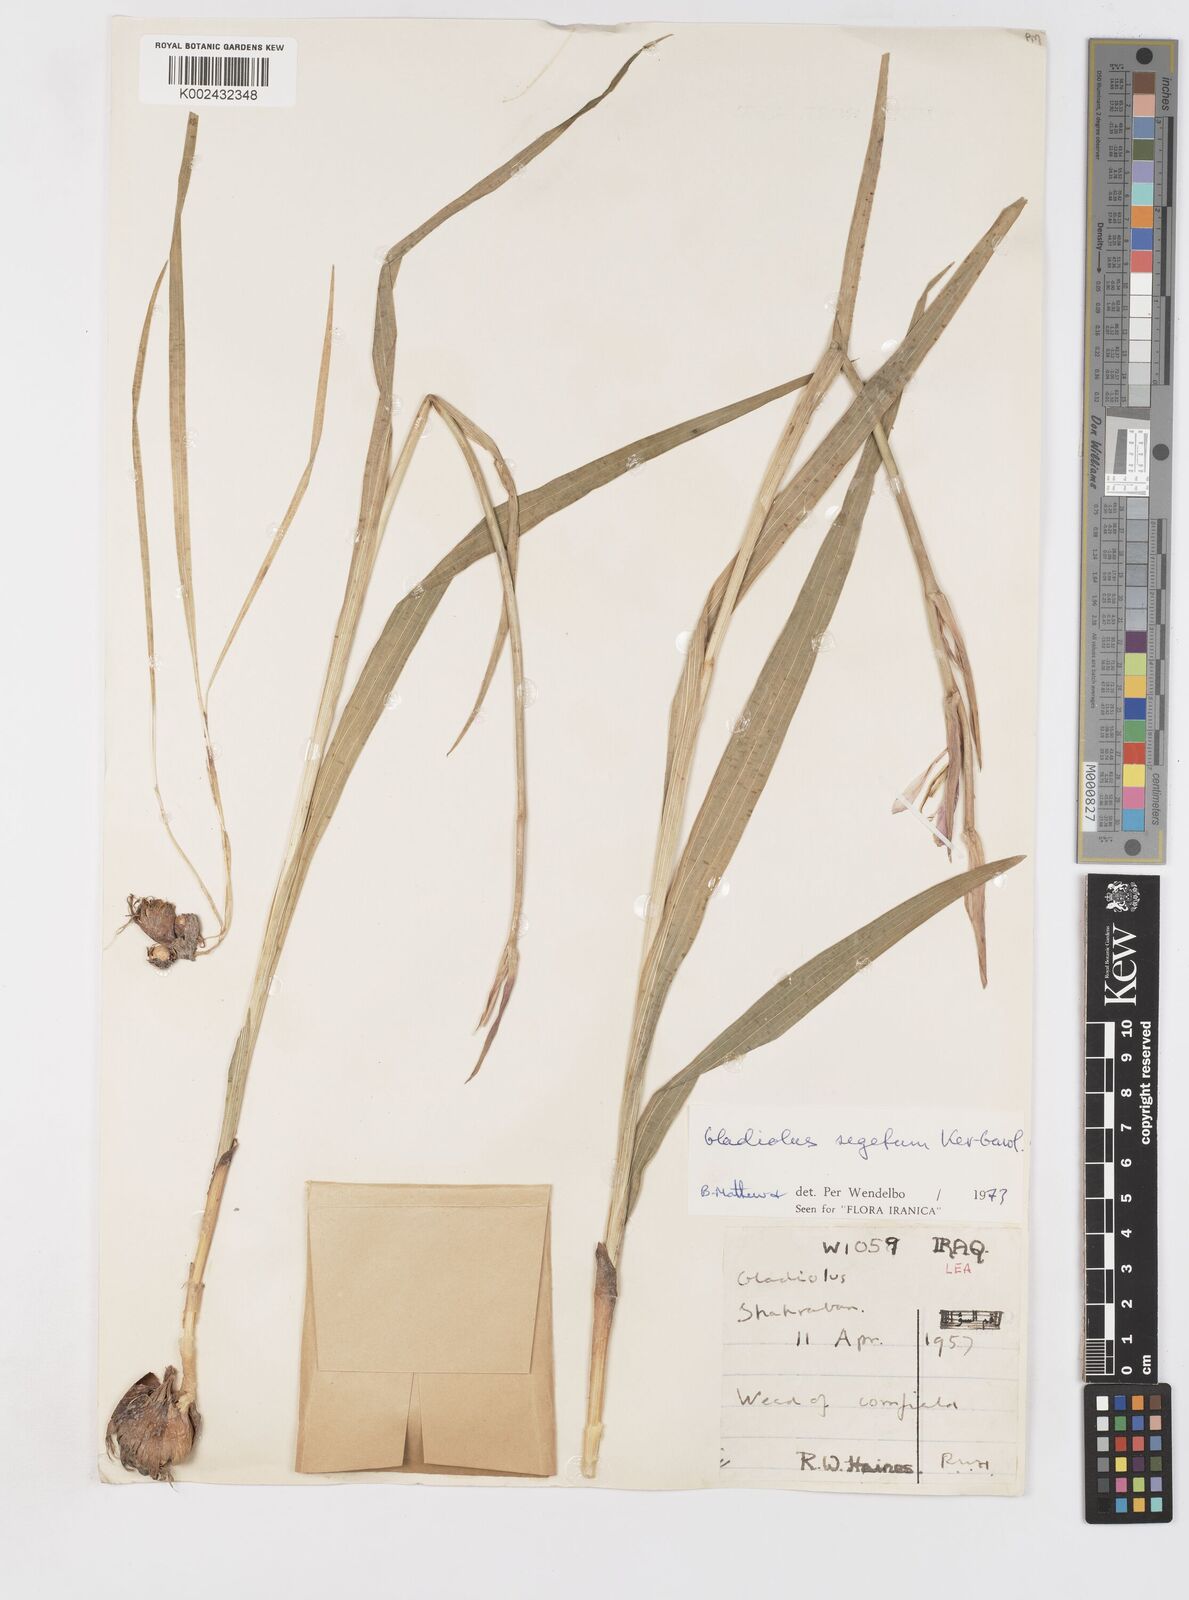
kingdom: Plantae
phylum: Tracheophyta
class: Liliopsida
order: Asparagales
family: Iridaceae
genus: Gladiolus
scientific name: Gladiolus italicus
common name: Field gladiolus
